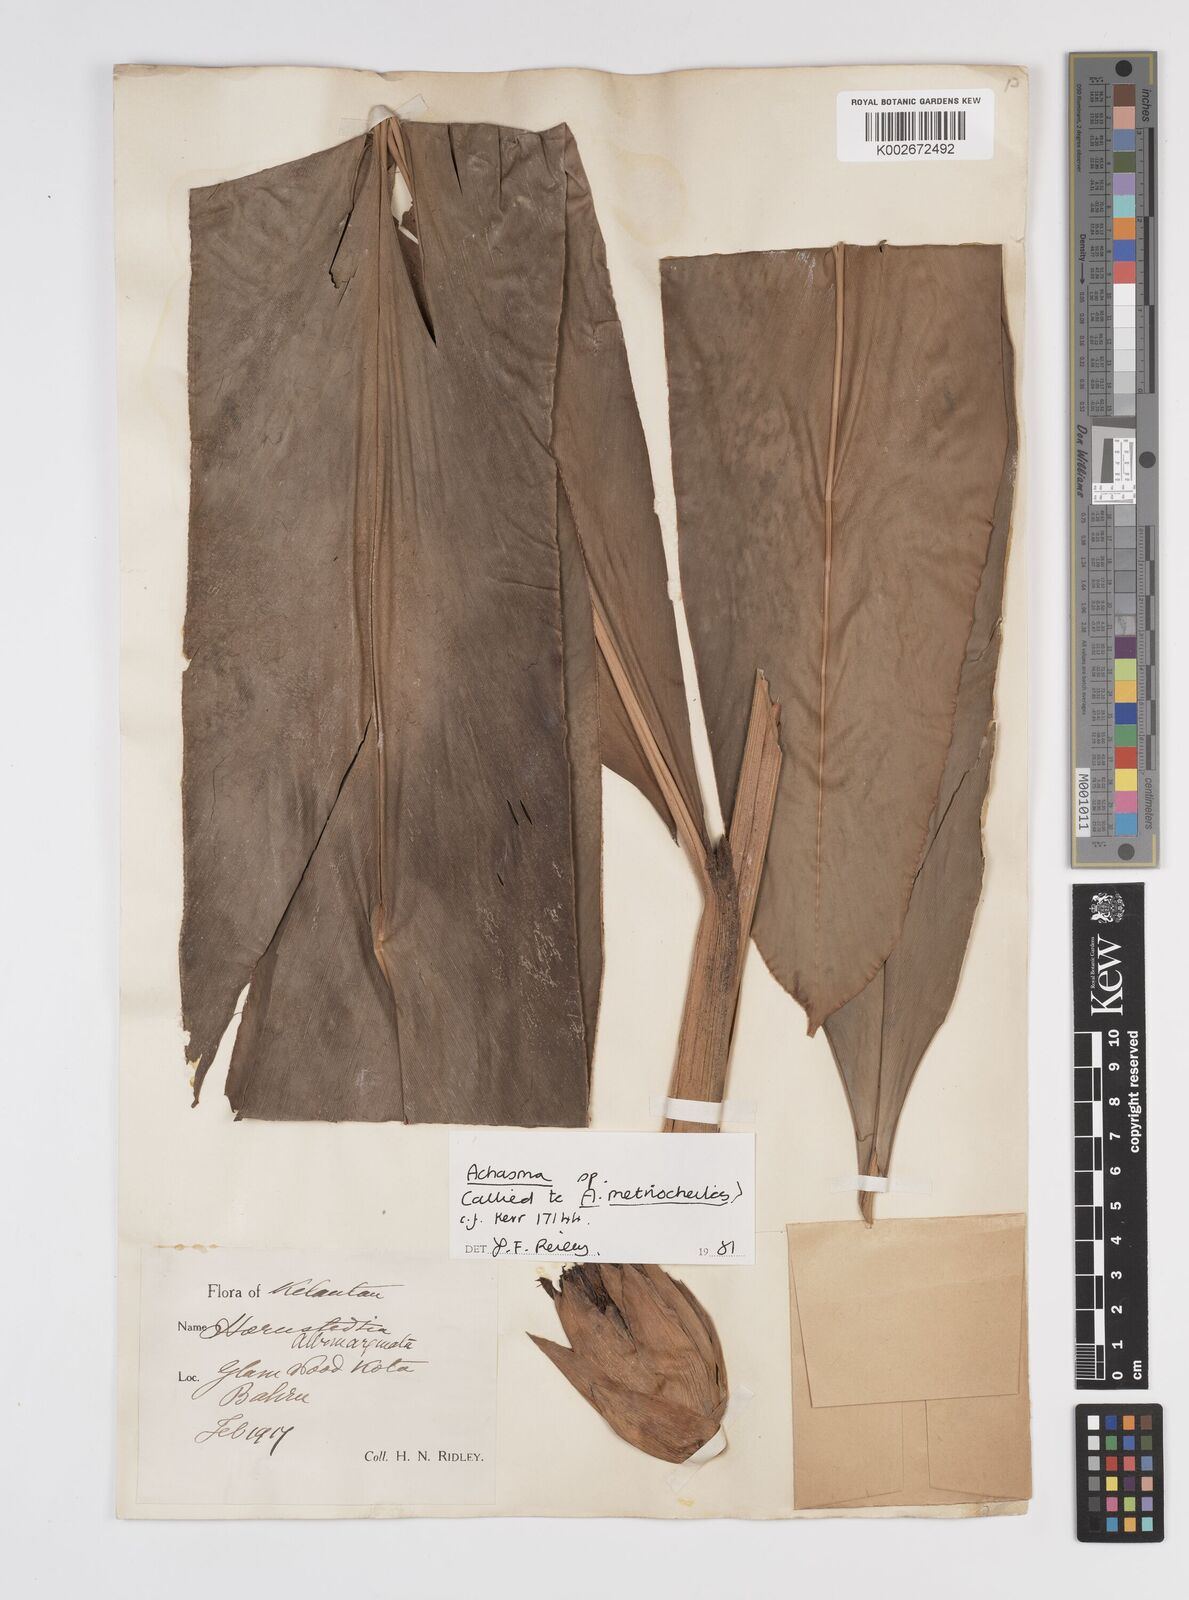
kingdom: Plantae
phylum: Tracheophyta
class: Liliopsida
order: Zingiberales
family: Zingiberaceae
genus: Etlingera
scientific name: Etlingera metriocheilos
